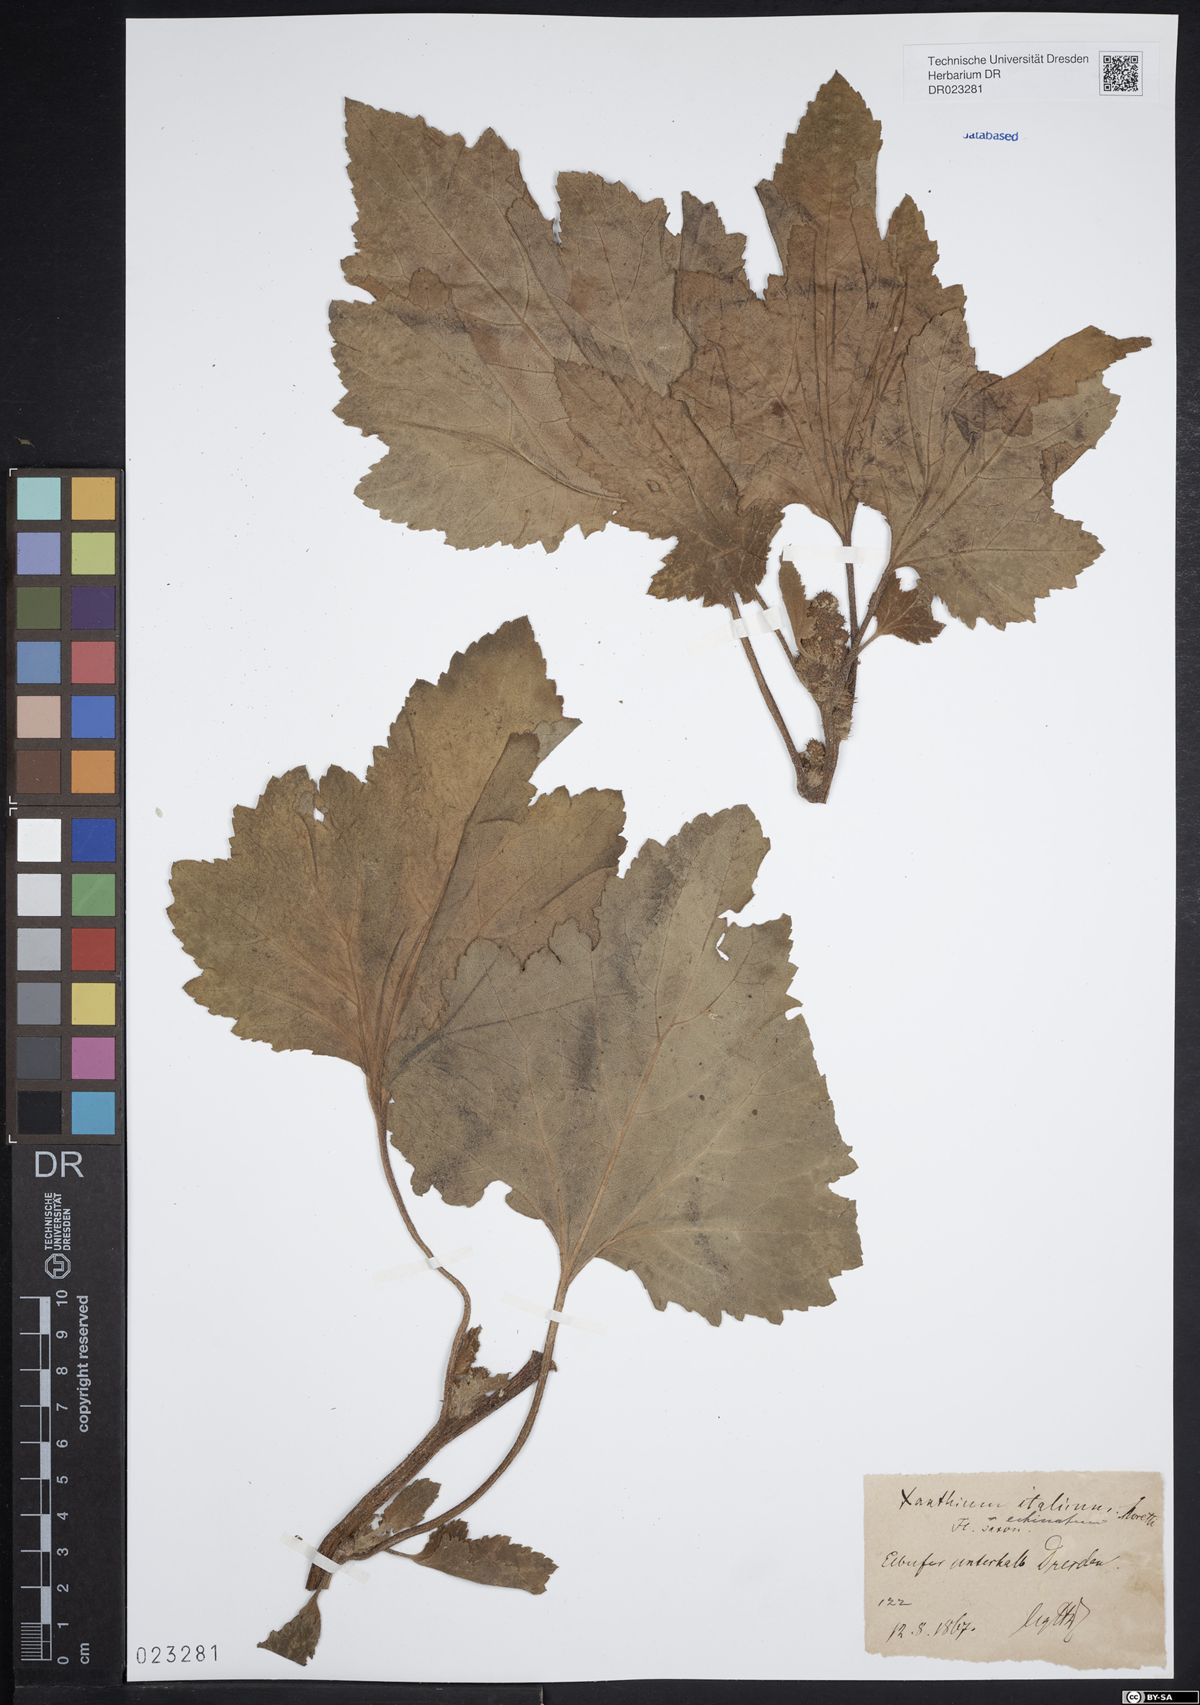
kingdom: Plantae
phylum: Tracheophyta
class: Magnoliopsida
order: Asterales
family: Asteraceae
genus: Xanthium
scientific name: Xanthium orientale
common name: Californian burr
